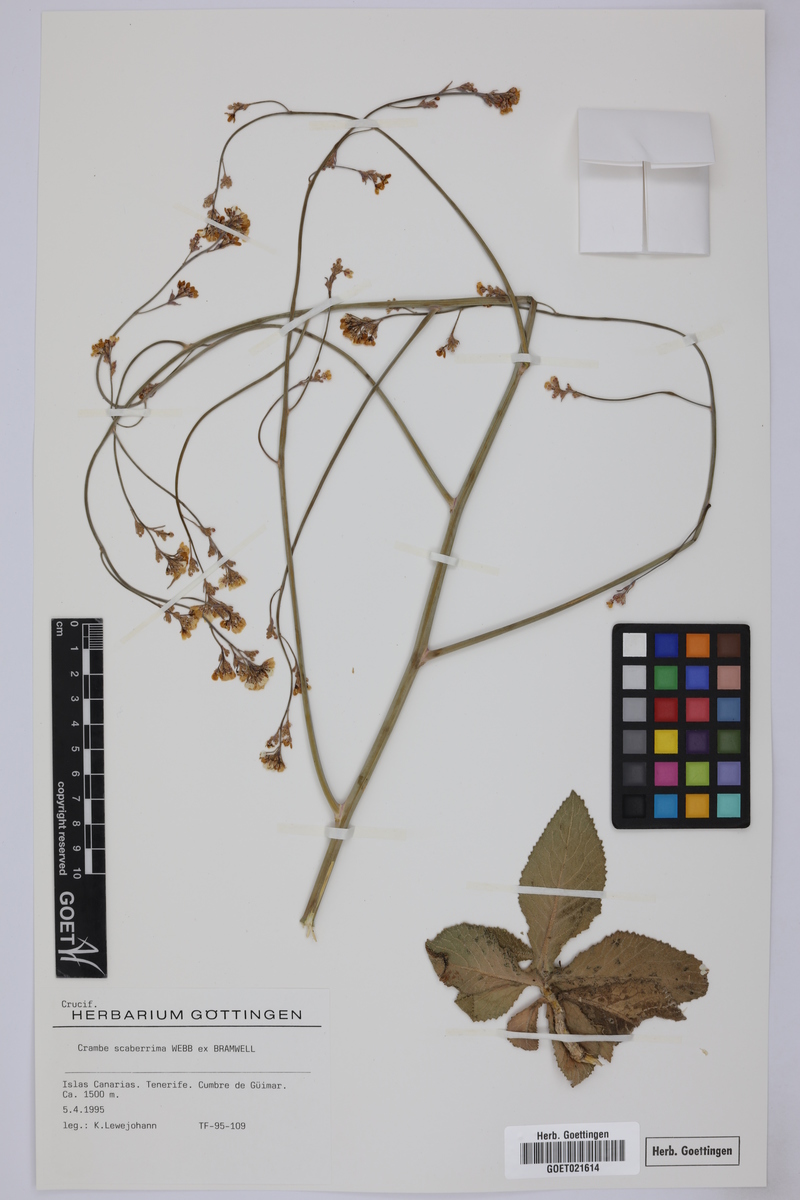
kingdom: Plantae
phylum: Tracheophyta
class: Magnoliopsida
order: Brassicales
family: Brassicaceae
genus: Crambe
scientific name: Crambe scaberrima
